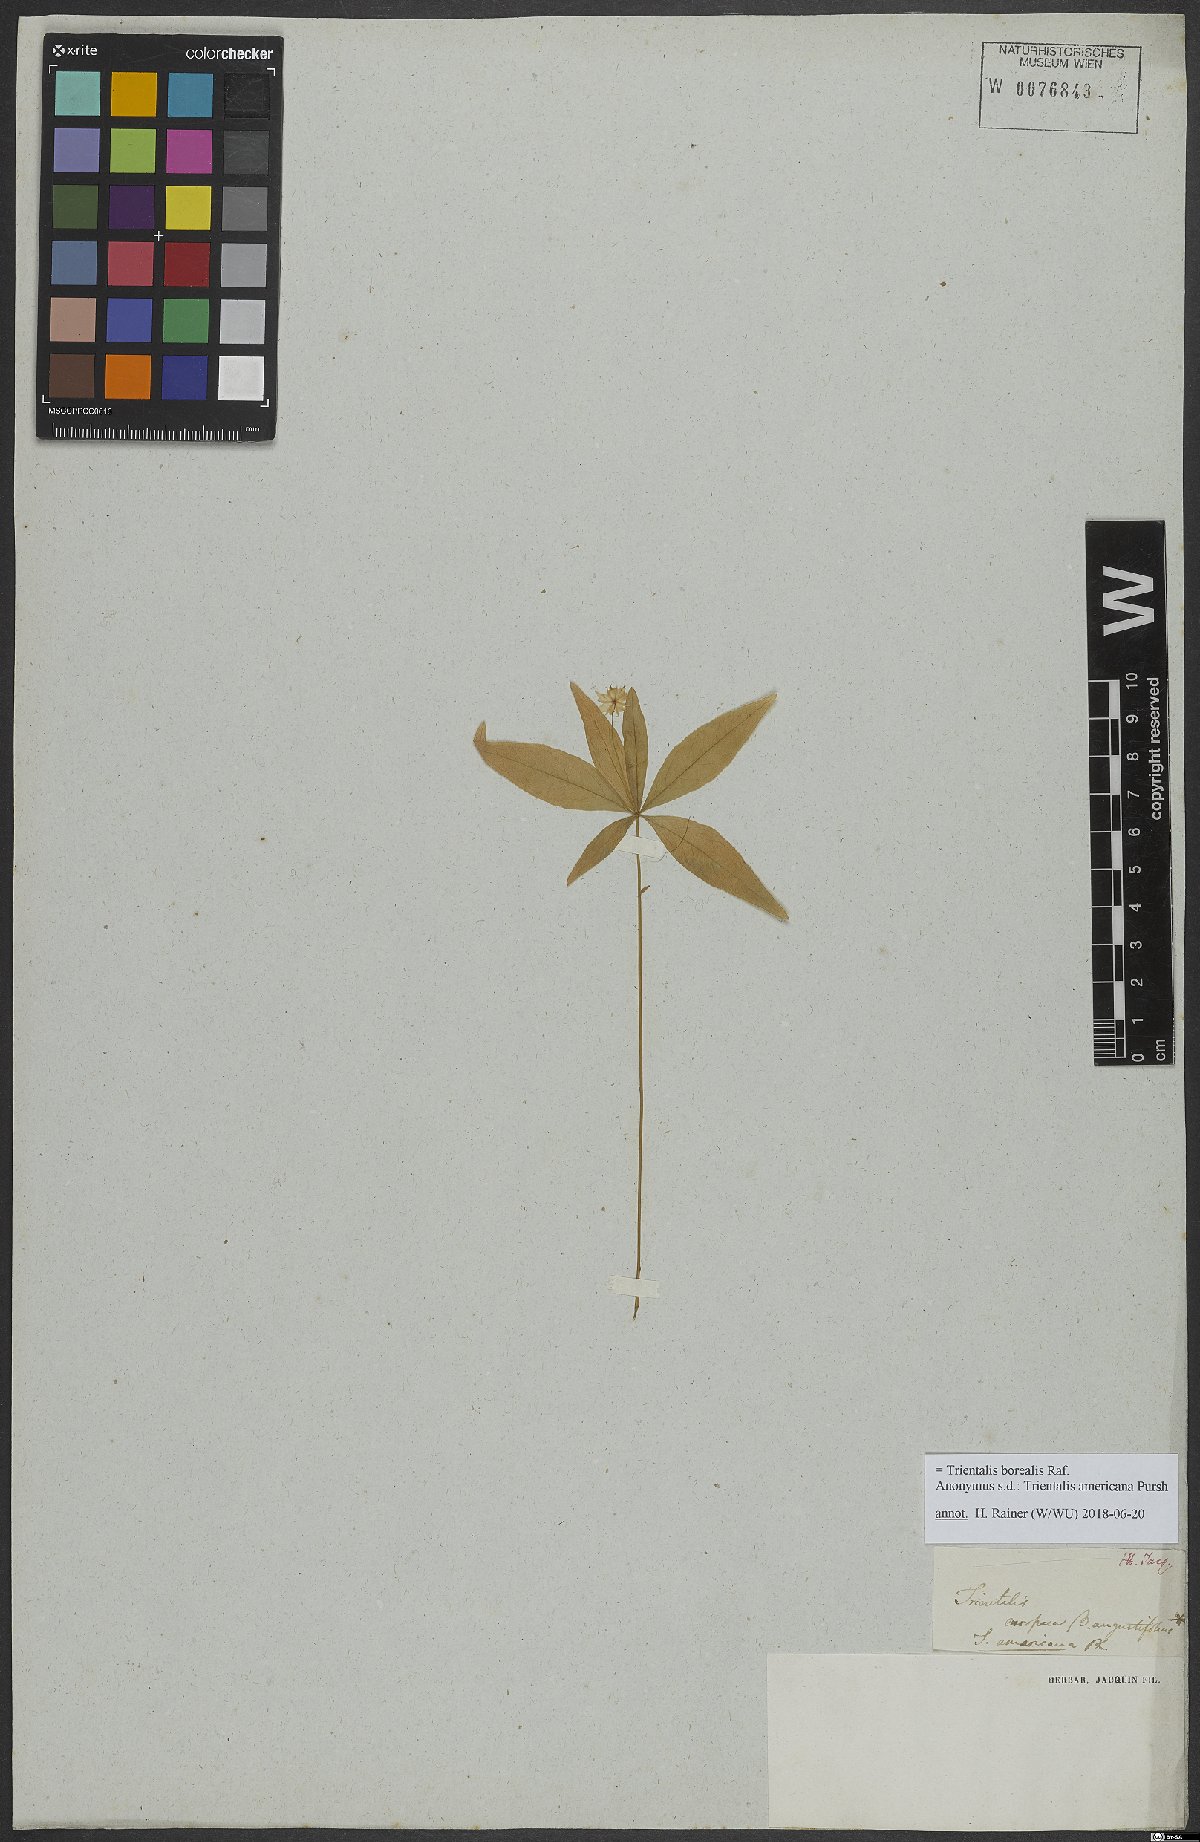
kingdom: Plantae
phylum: Tracheophyta
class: Magnoliopsida
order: Ericales
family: Primulaceae
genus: Lysimachia
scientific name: Lysimachia borealis
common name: American starflower
